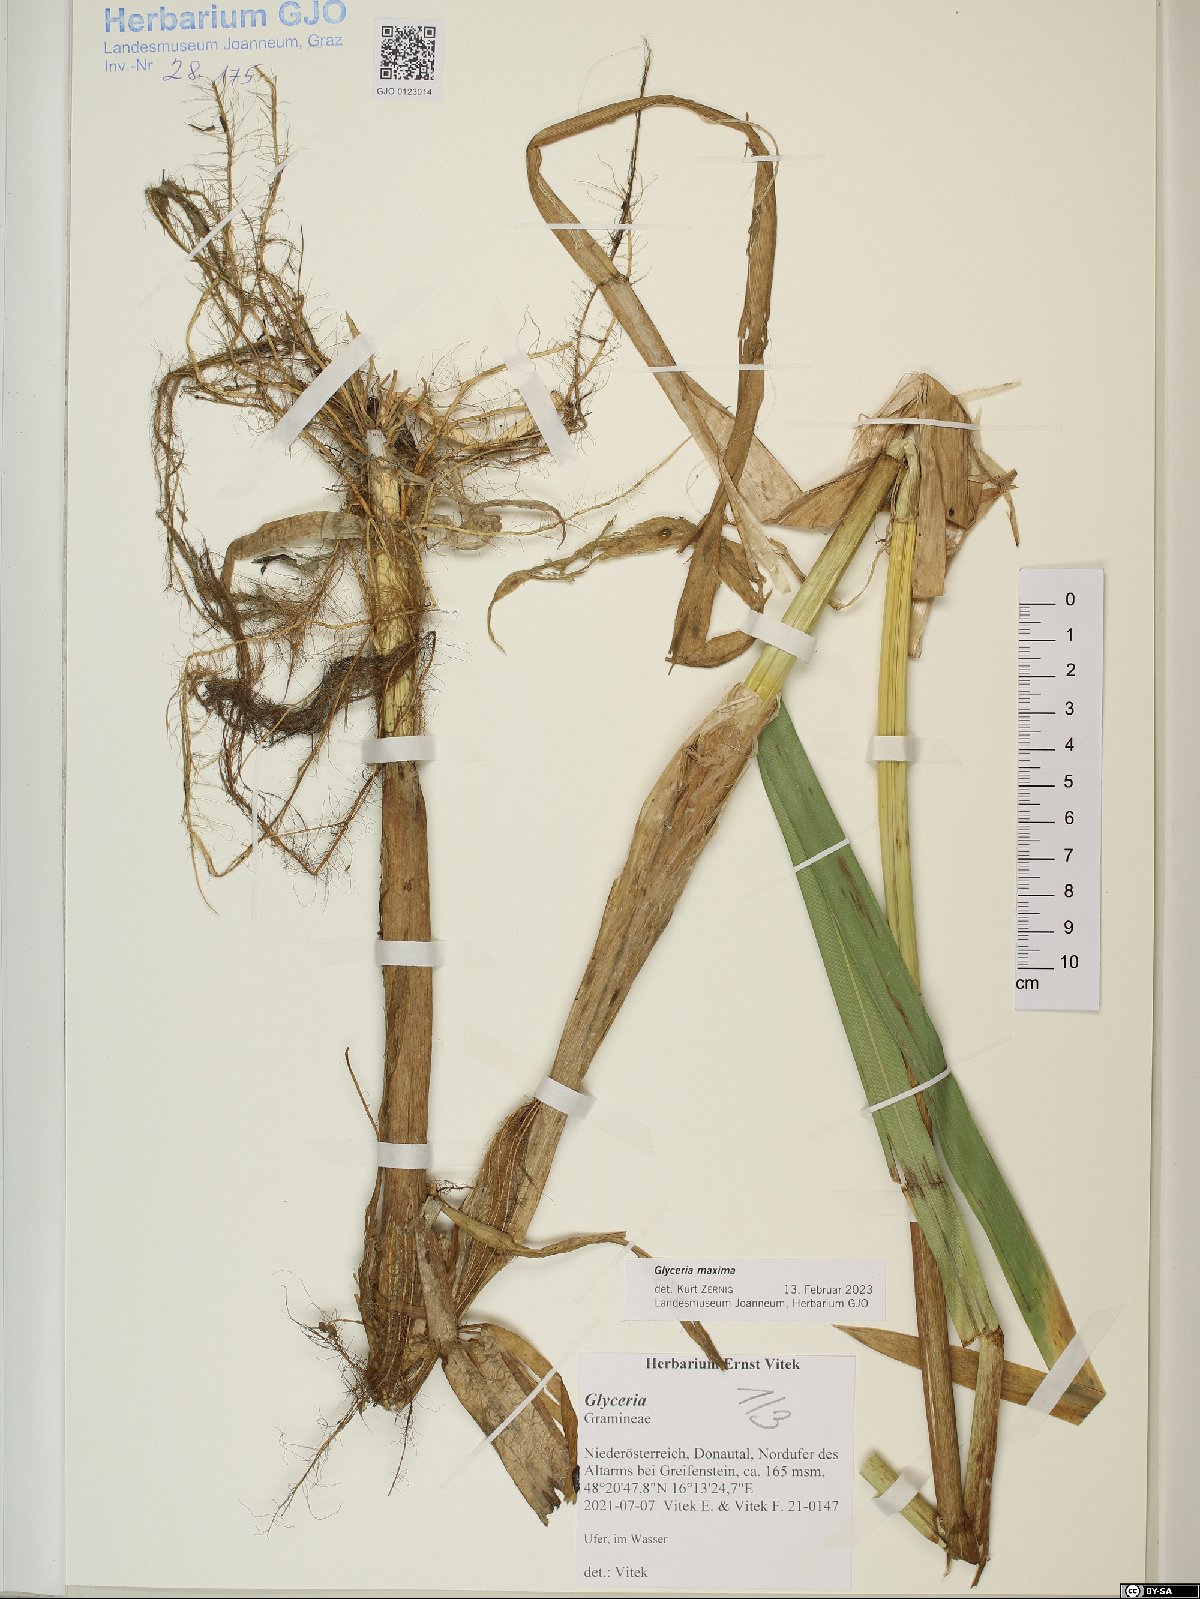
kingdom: Plantae
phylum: Tracheophyta
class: Liliopsida
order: Poales
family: Poaceae
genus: Glyceria
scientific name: Glyceria maxima
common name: Reed mannagrass
